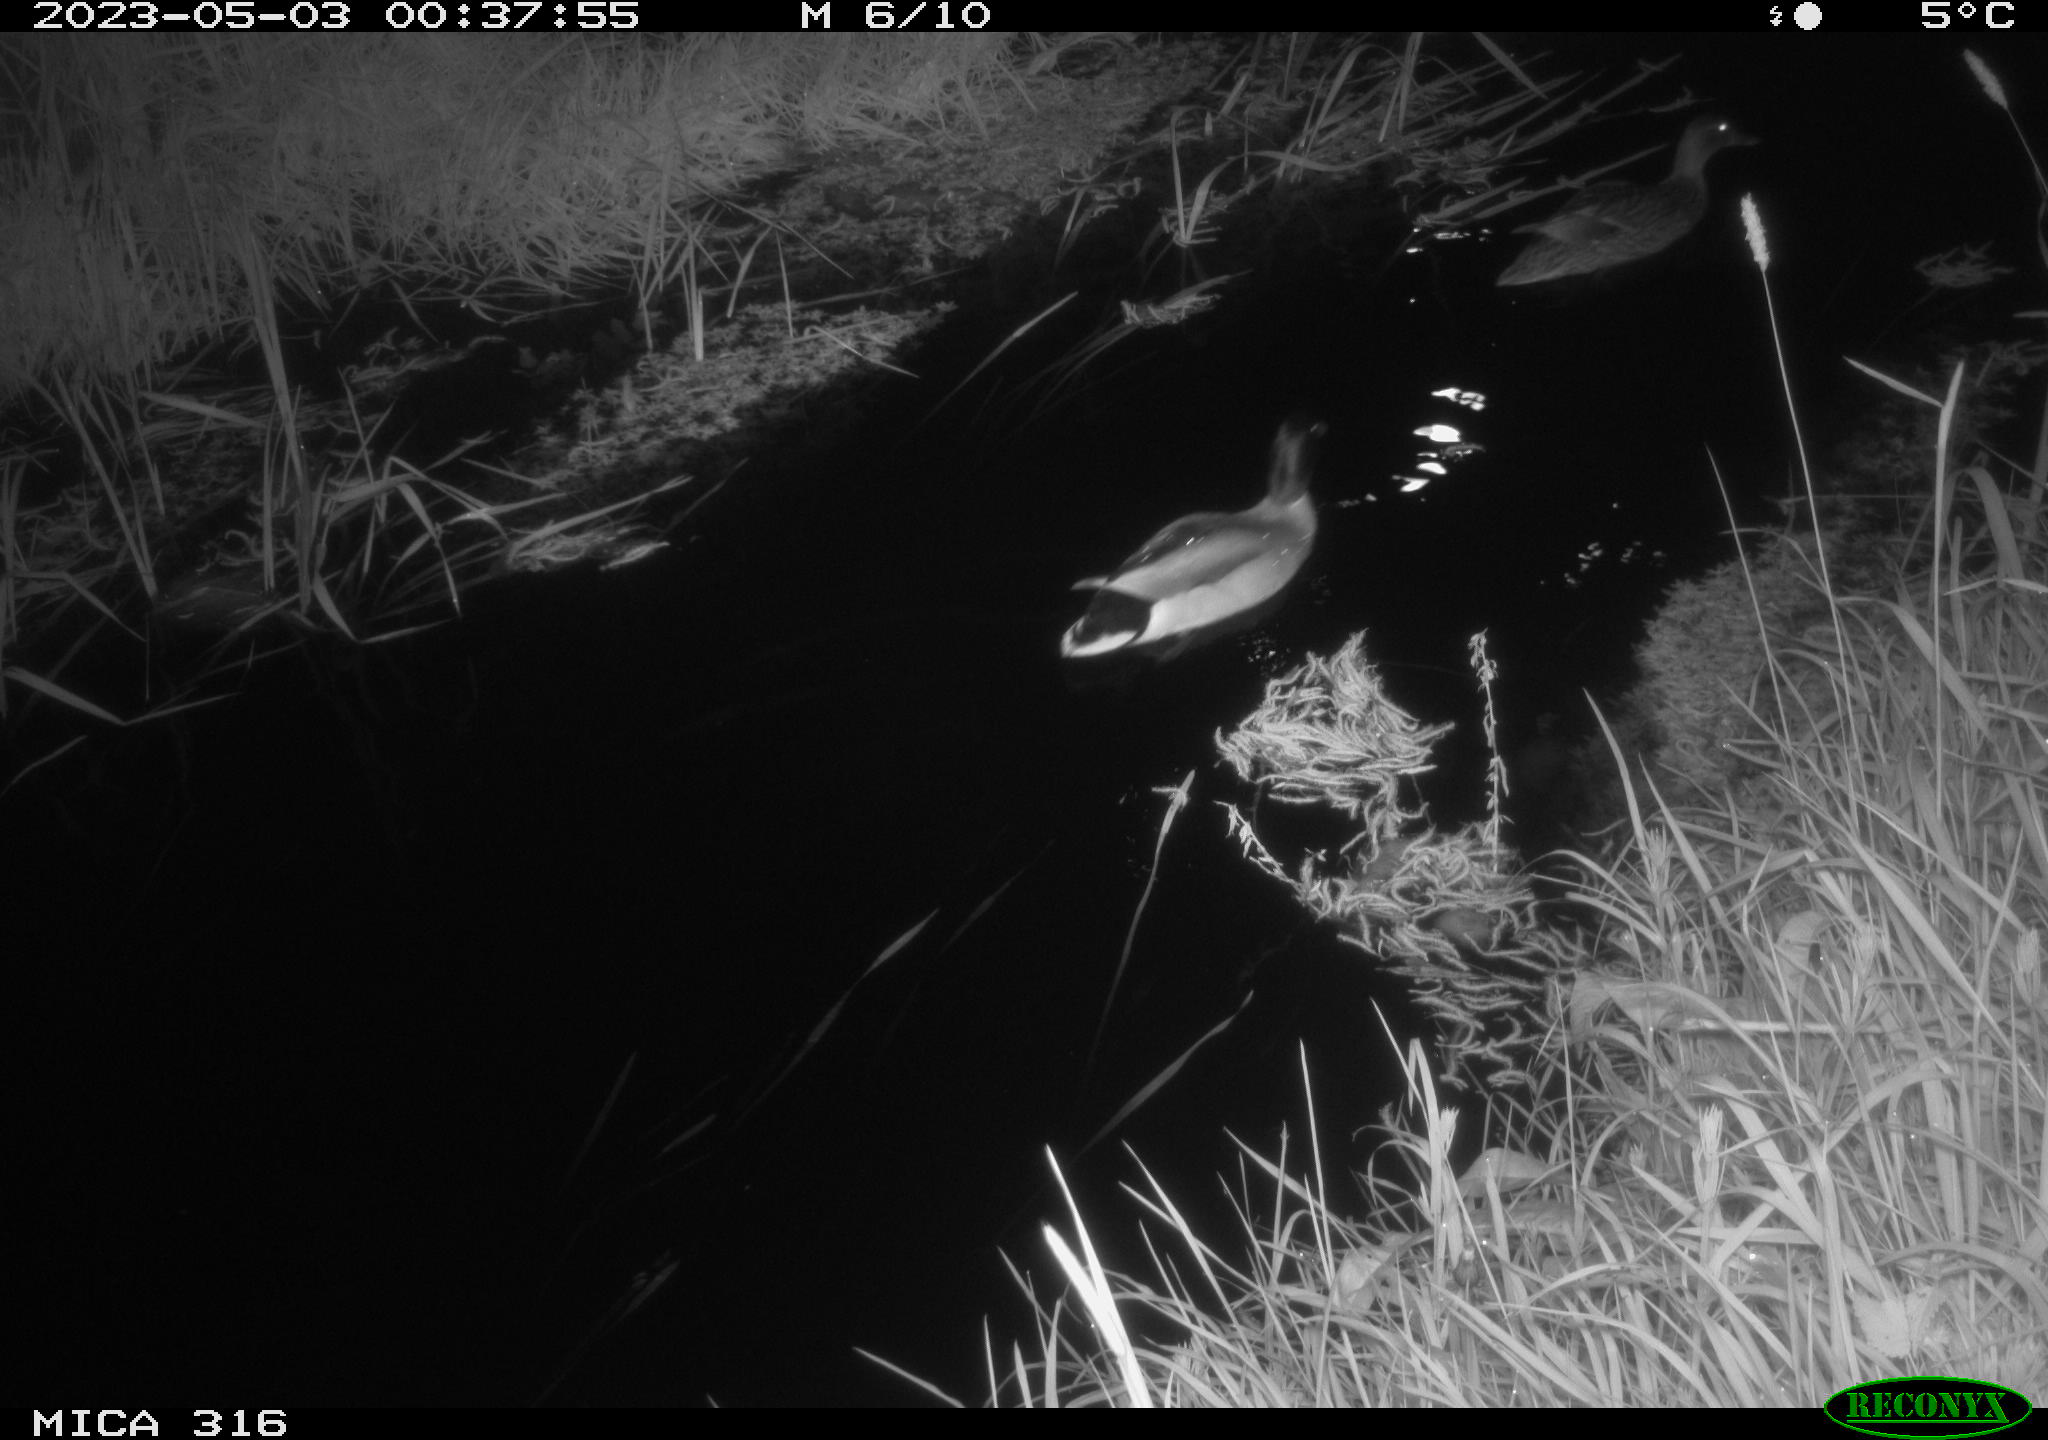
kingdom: Animalia
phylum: Chordata
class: Aves
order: Anseriformes
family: Anatidae
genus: Anas
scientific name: Anas
